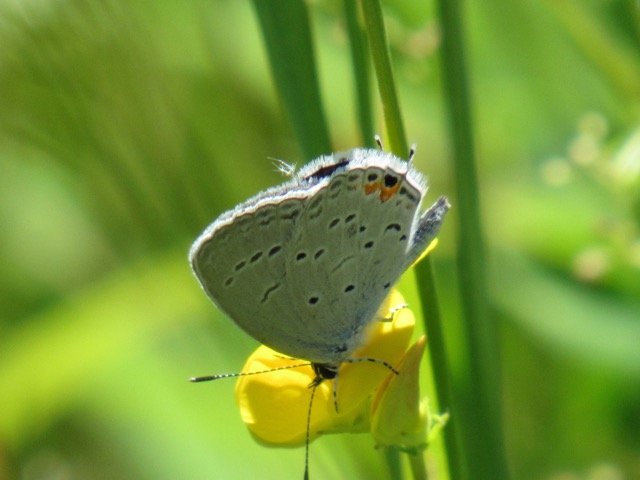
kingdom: Animalia
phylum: Arthropoda
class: Insecta
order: Lepidoptera
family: Lycaenidae
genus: Elkalyce
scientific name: Elkalyce comyntas
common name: Eastern Tailed-Blue
